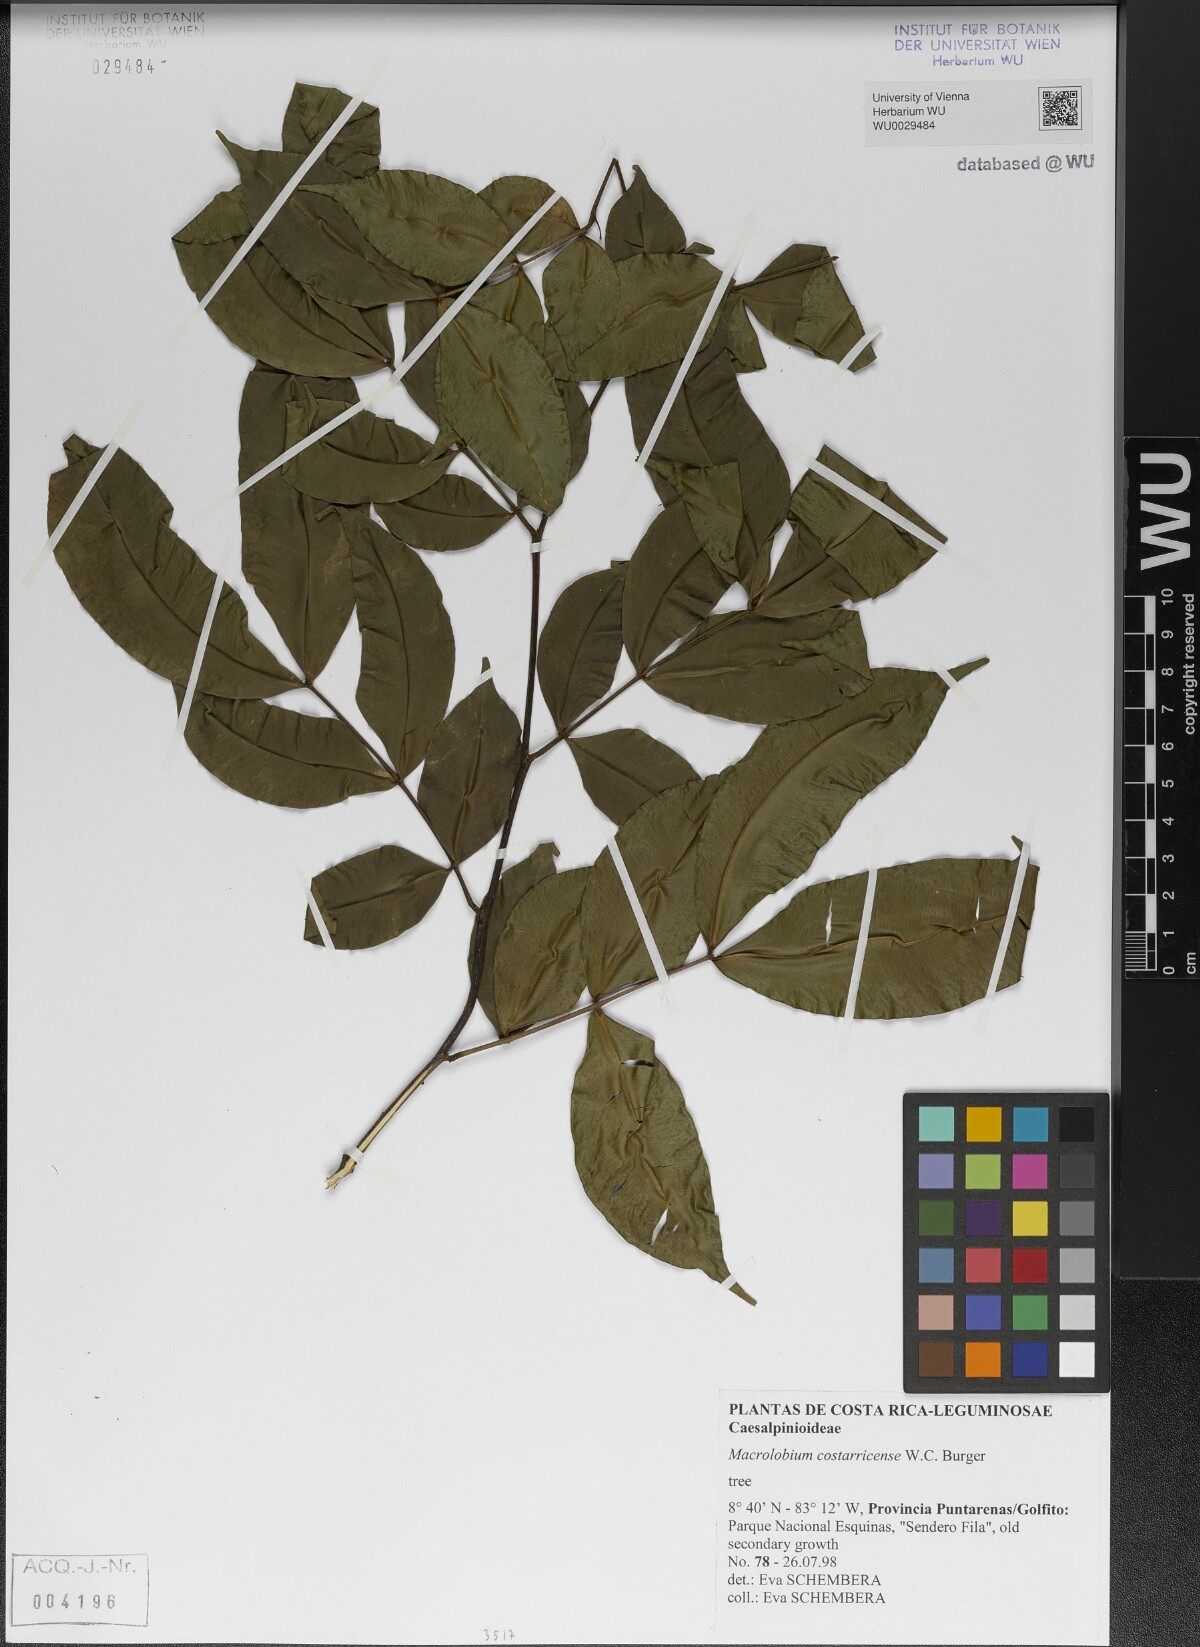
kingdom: Plantae
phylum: Tracheophyta
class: Magnoliopsida
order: Fabales
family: Fabaceae
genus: Macrolobium
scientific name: Macrolobium costaricense
